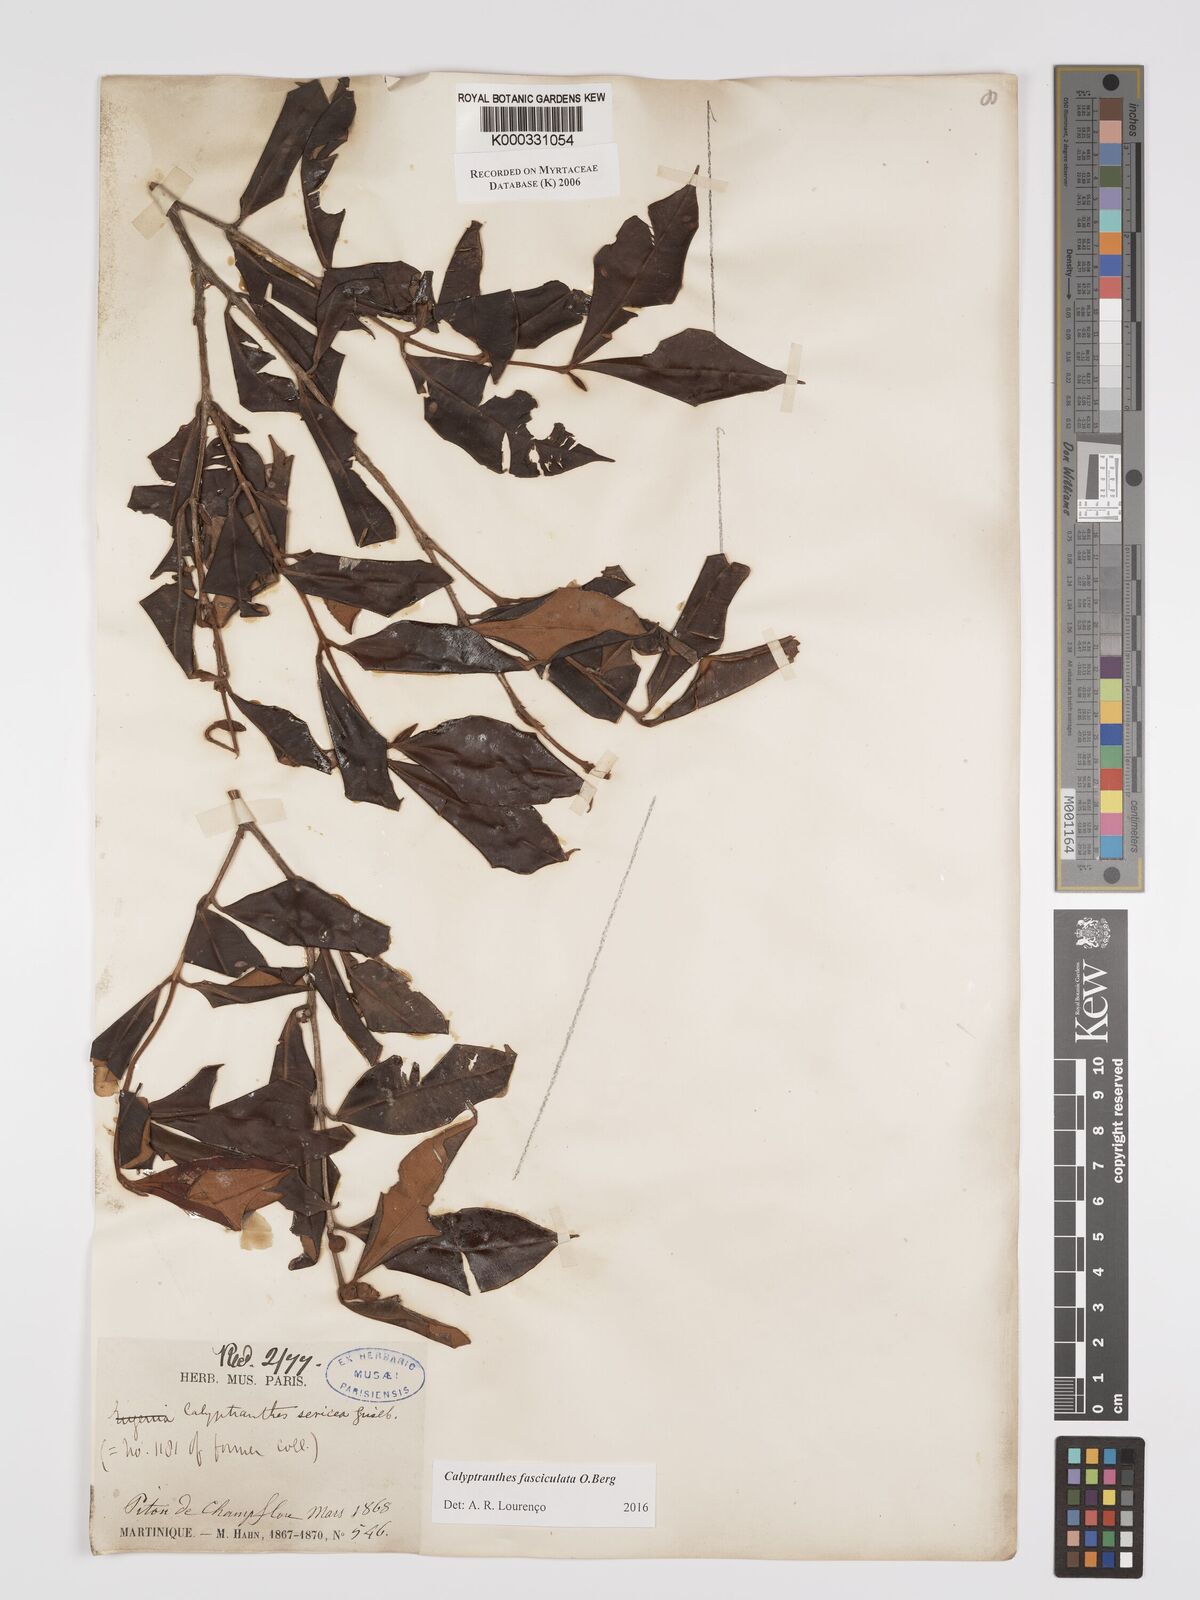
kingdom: Plantae
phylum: Tracheophyta
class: Magnoliopsida
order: Myrtales
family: Myrtaceae
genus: Myrcia
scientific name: Myrcia fasciculata
